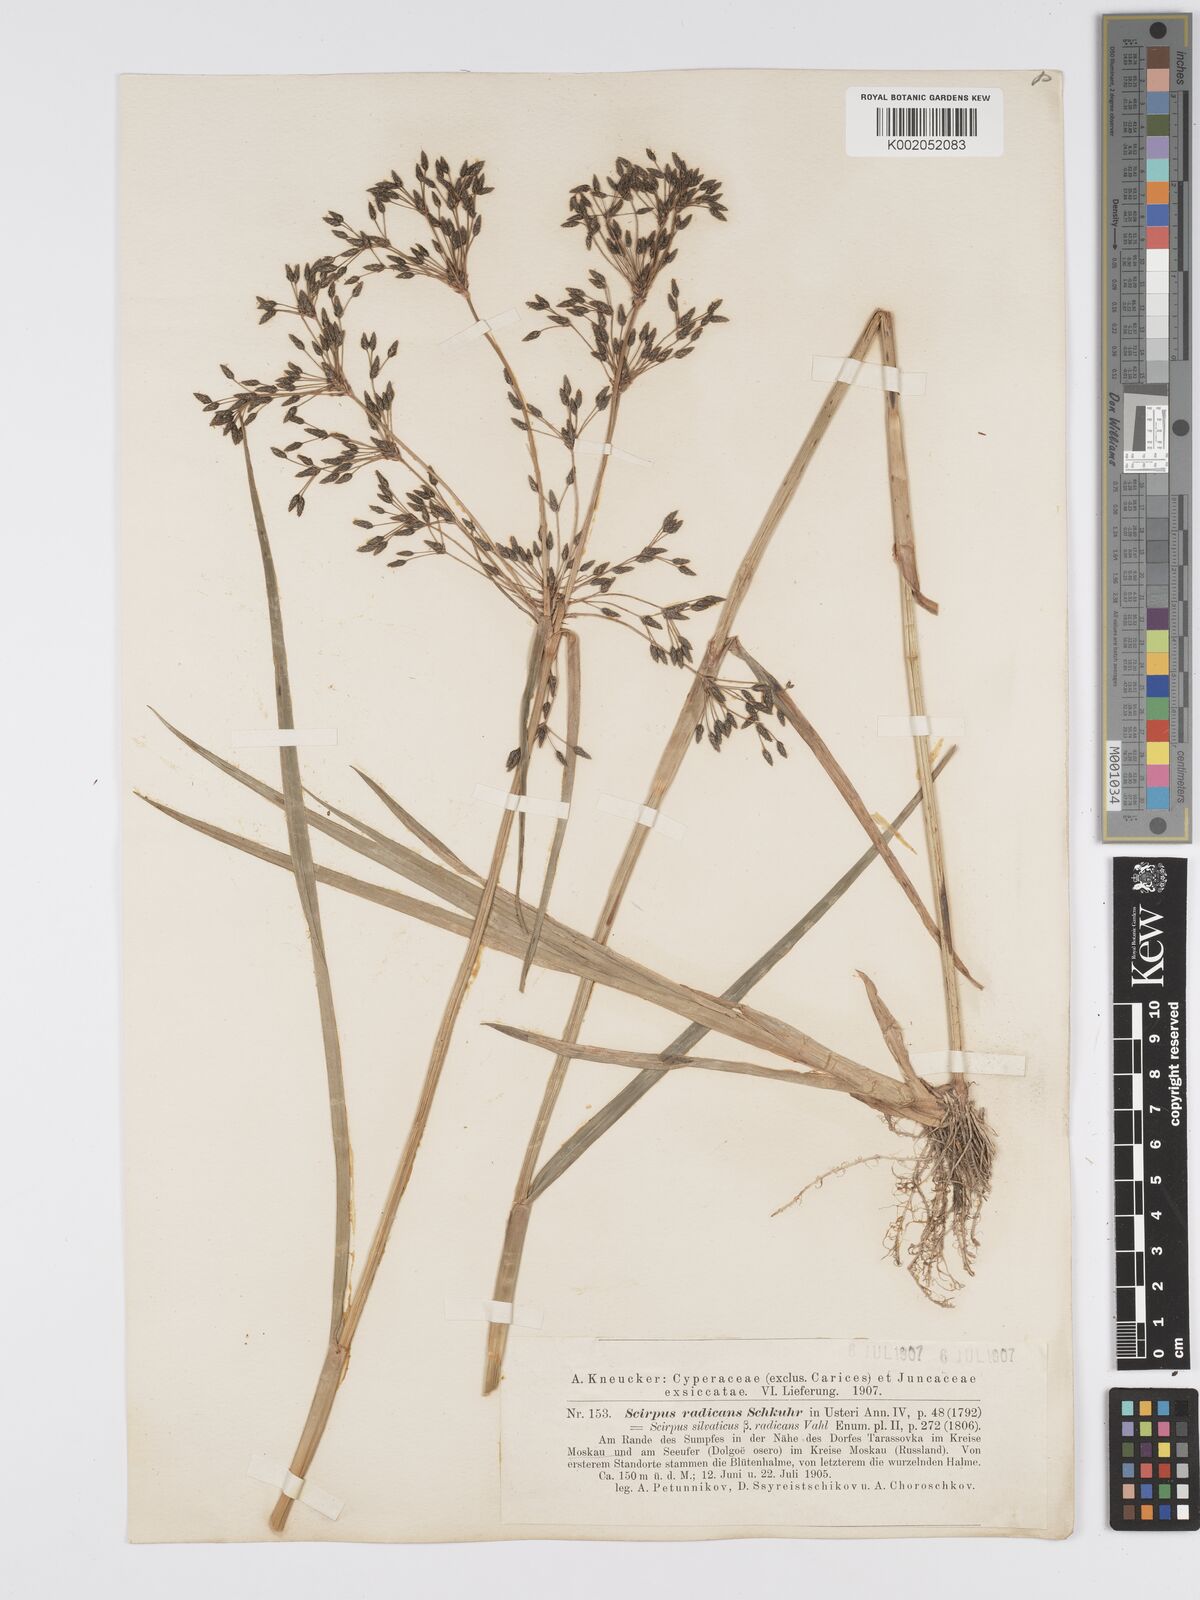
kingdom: Plantae
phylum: Tracheophyta
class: Liliopsida
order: Poales
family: Cyperaceae
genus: Scirpus
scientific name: Scirpus radicans
